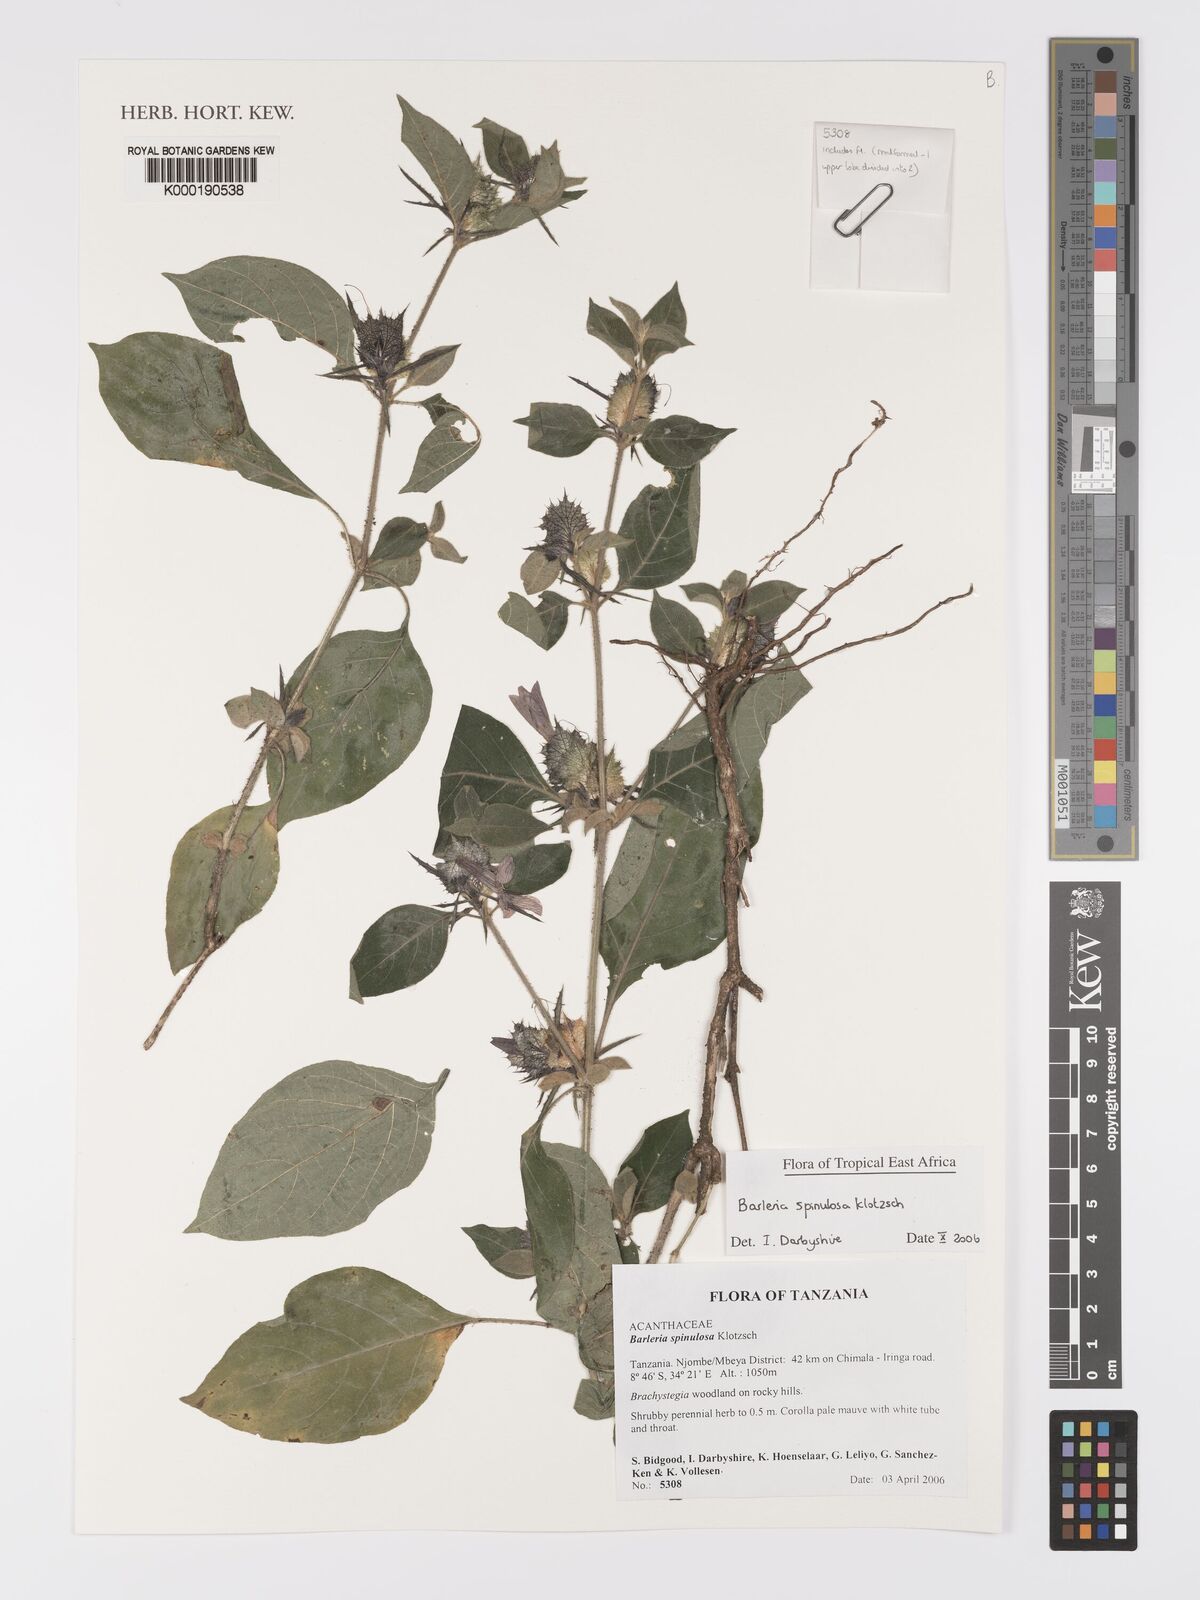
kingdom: Plantae
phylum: Tracheophyta
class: Magnoliopsida
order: Lamiales
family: Acanthaceae
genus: Barleria
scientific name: Barleria spinulosa
